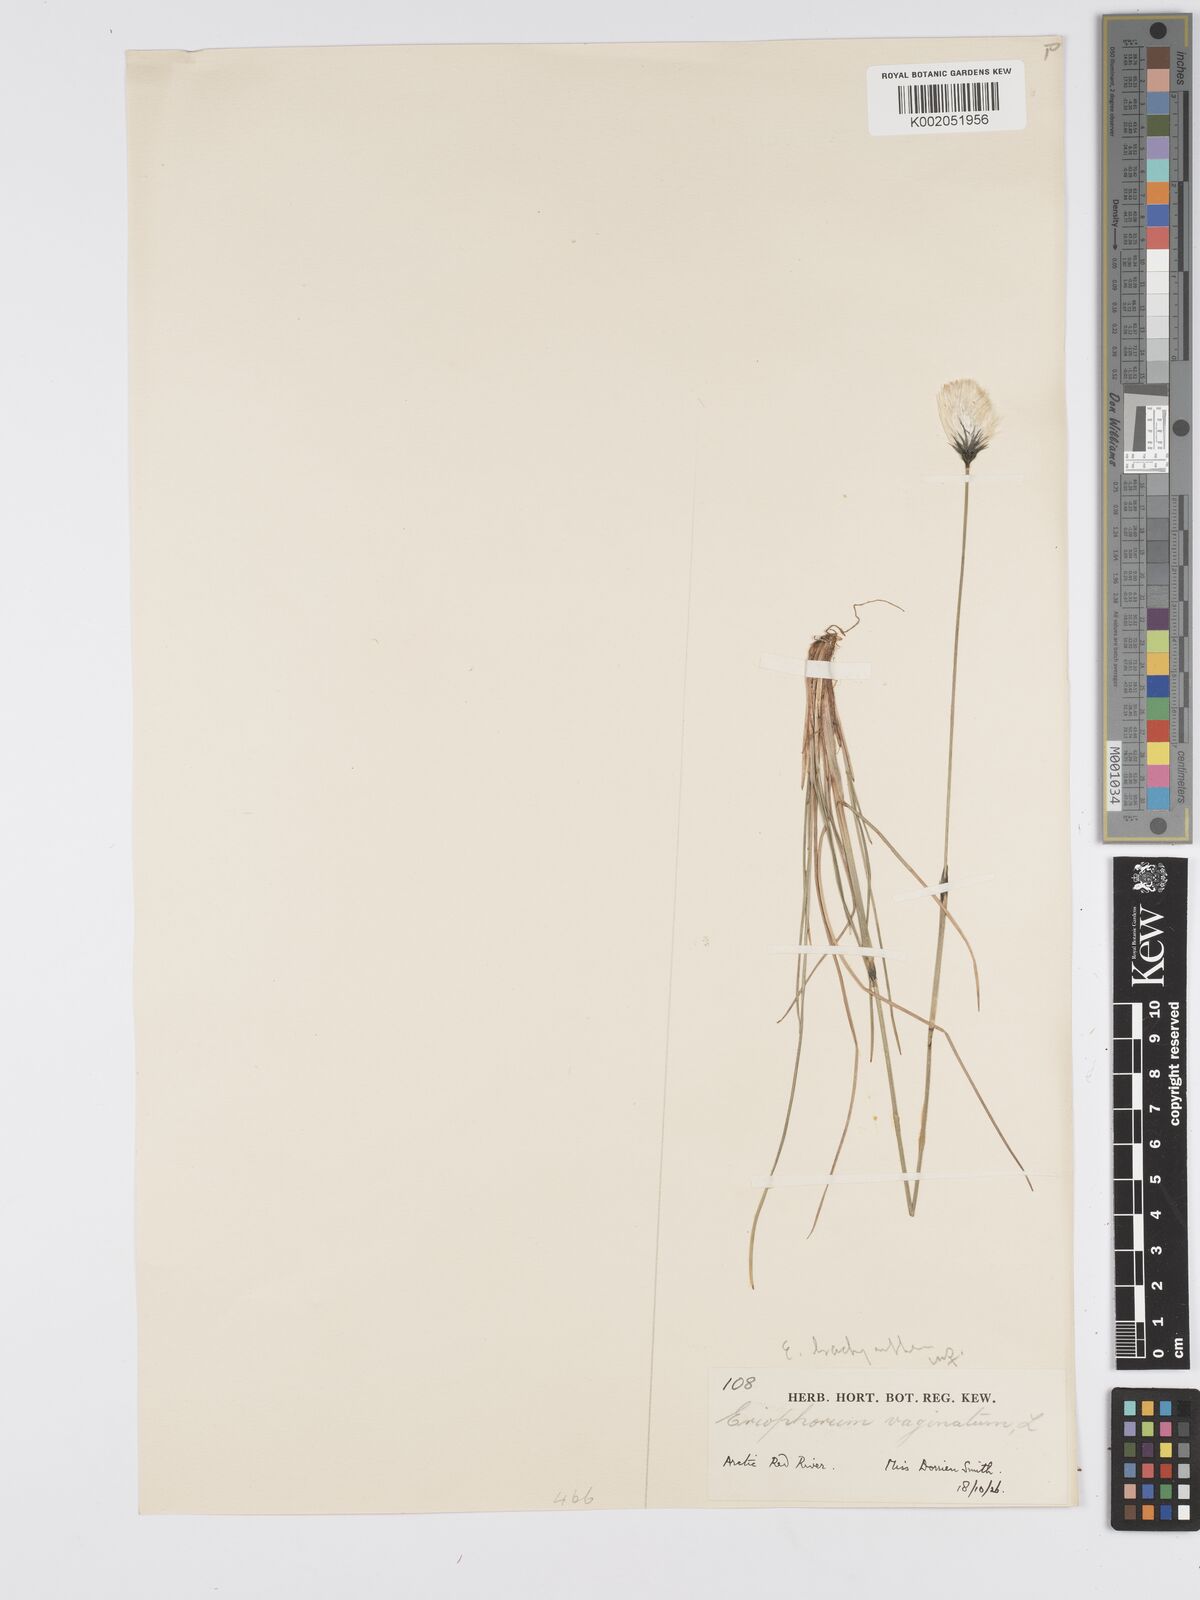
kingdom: Plantae
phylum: Tracheophyta
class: Liliopsida
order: Poales
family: Cyperaceae
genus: Eriophorum
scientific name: Eriophorum brachyantherum
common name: Closed-sheathed cottongrass
